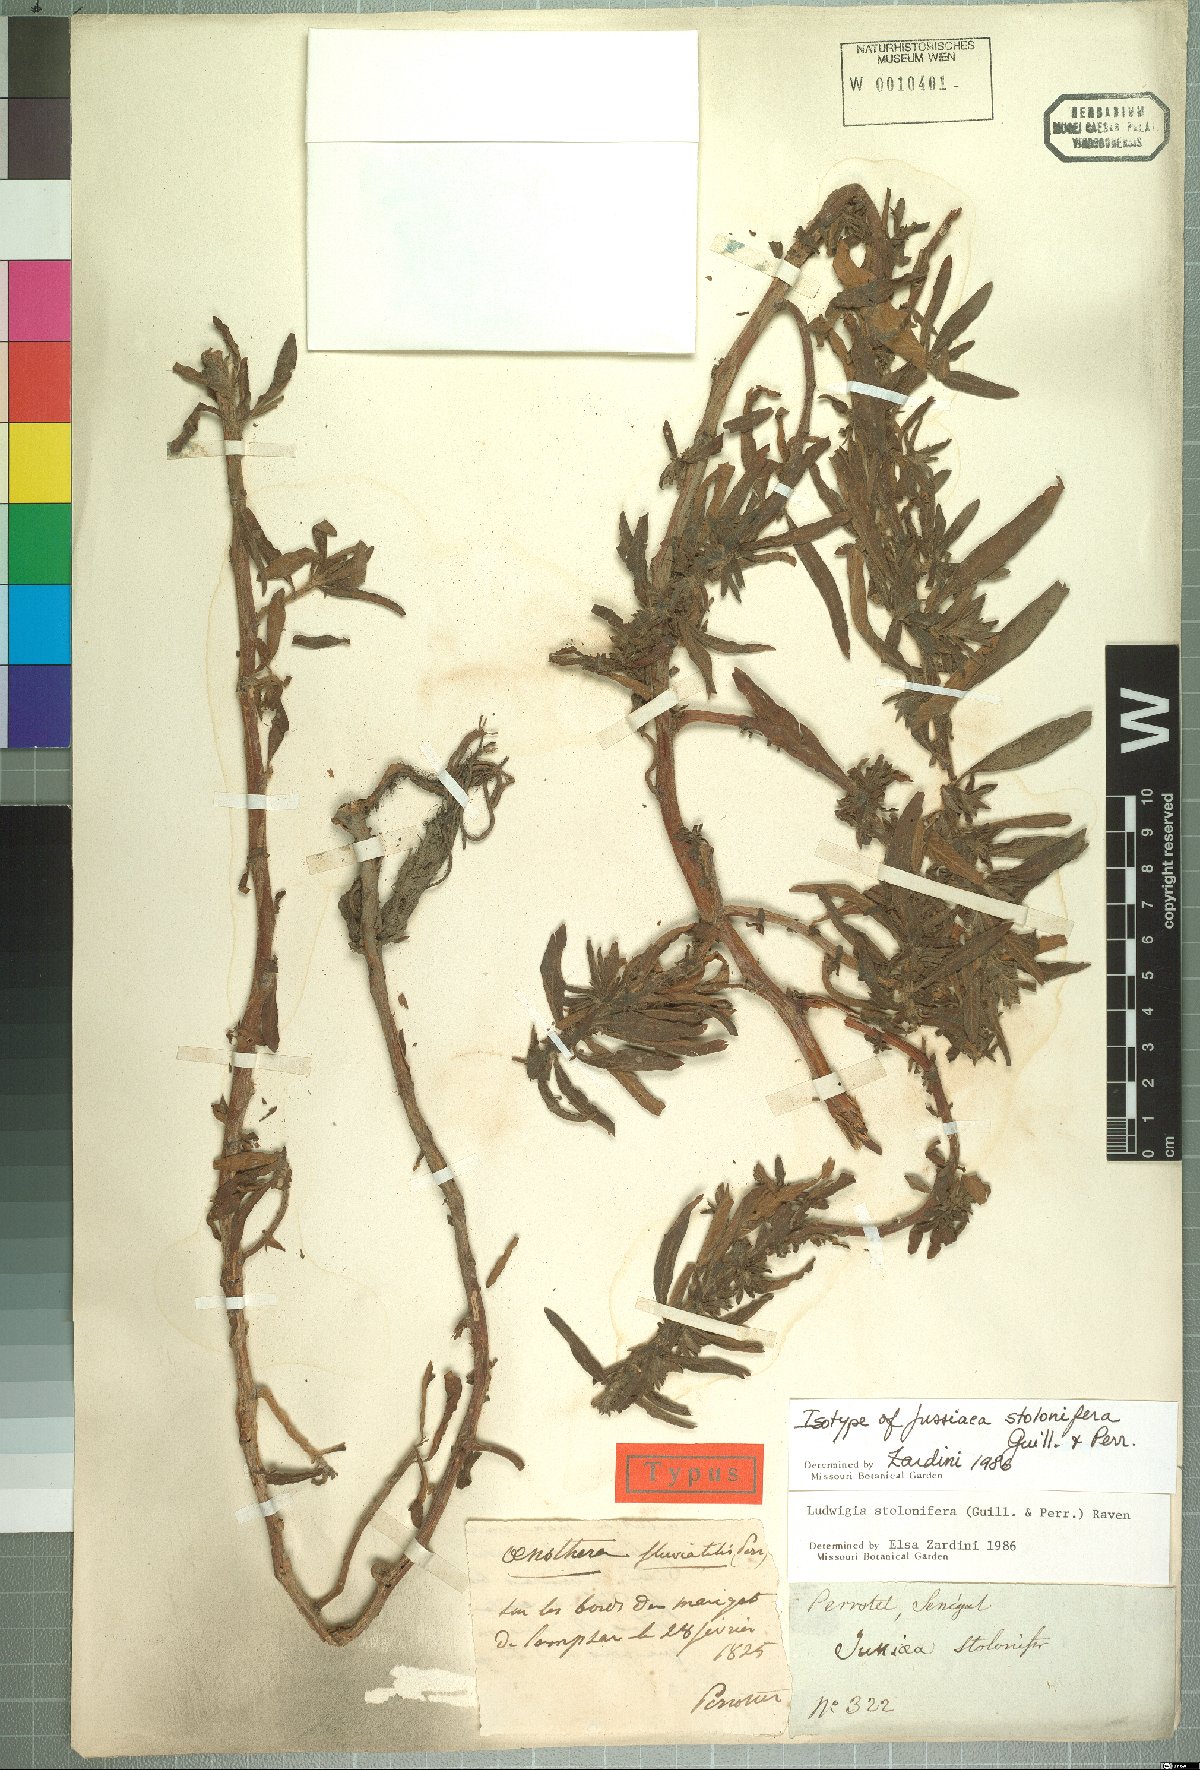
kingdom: Plantae
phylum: Tracheophyta
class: Magnoliopsida
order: Myrtales
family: Onagraceae
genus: Ludwigia
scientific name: Ludwigia adscendens
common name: Creeping water primrose
